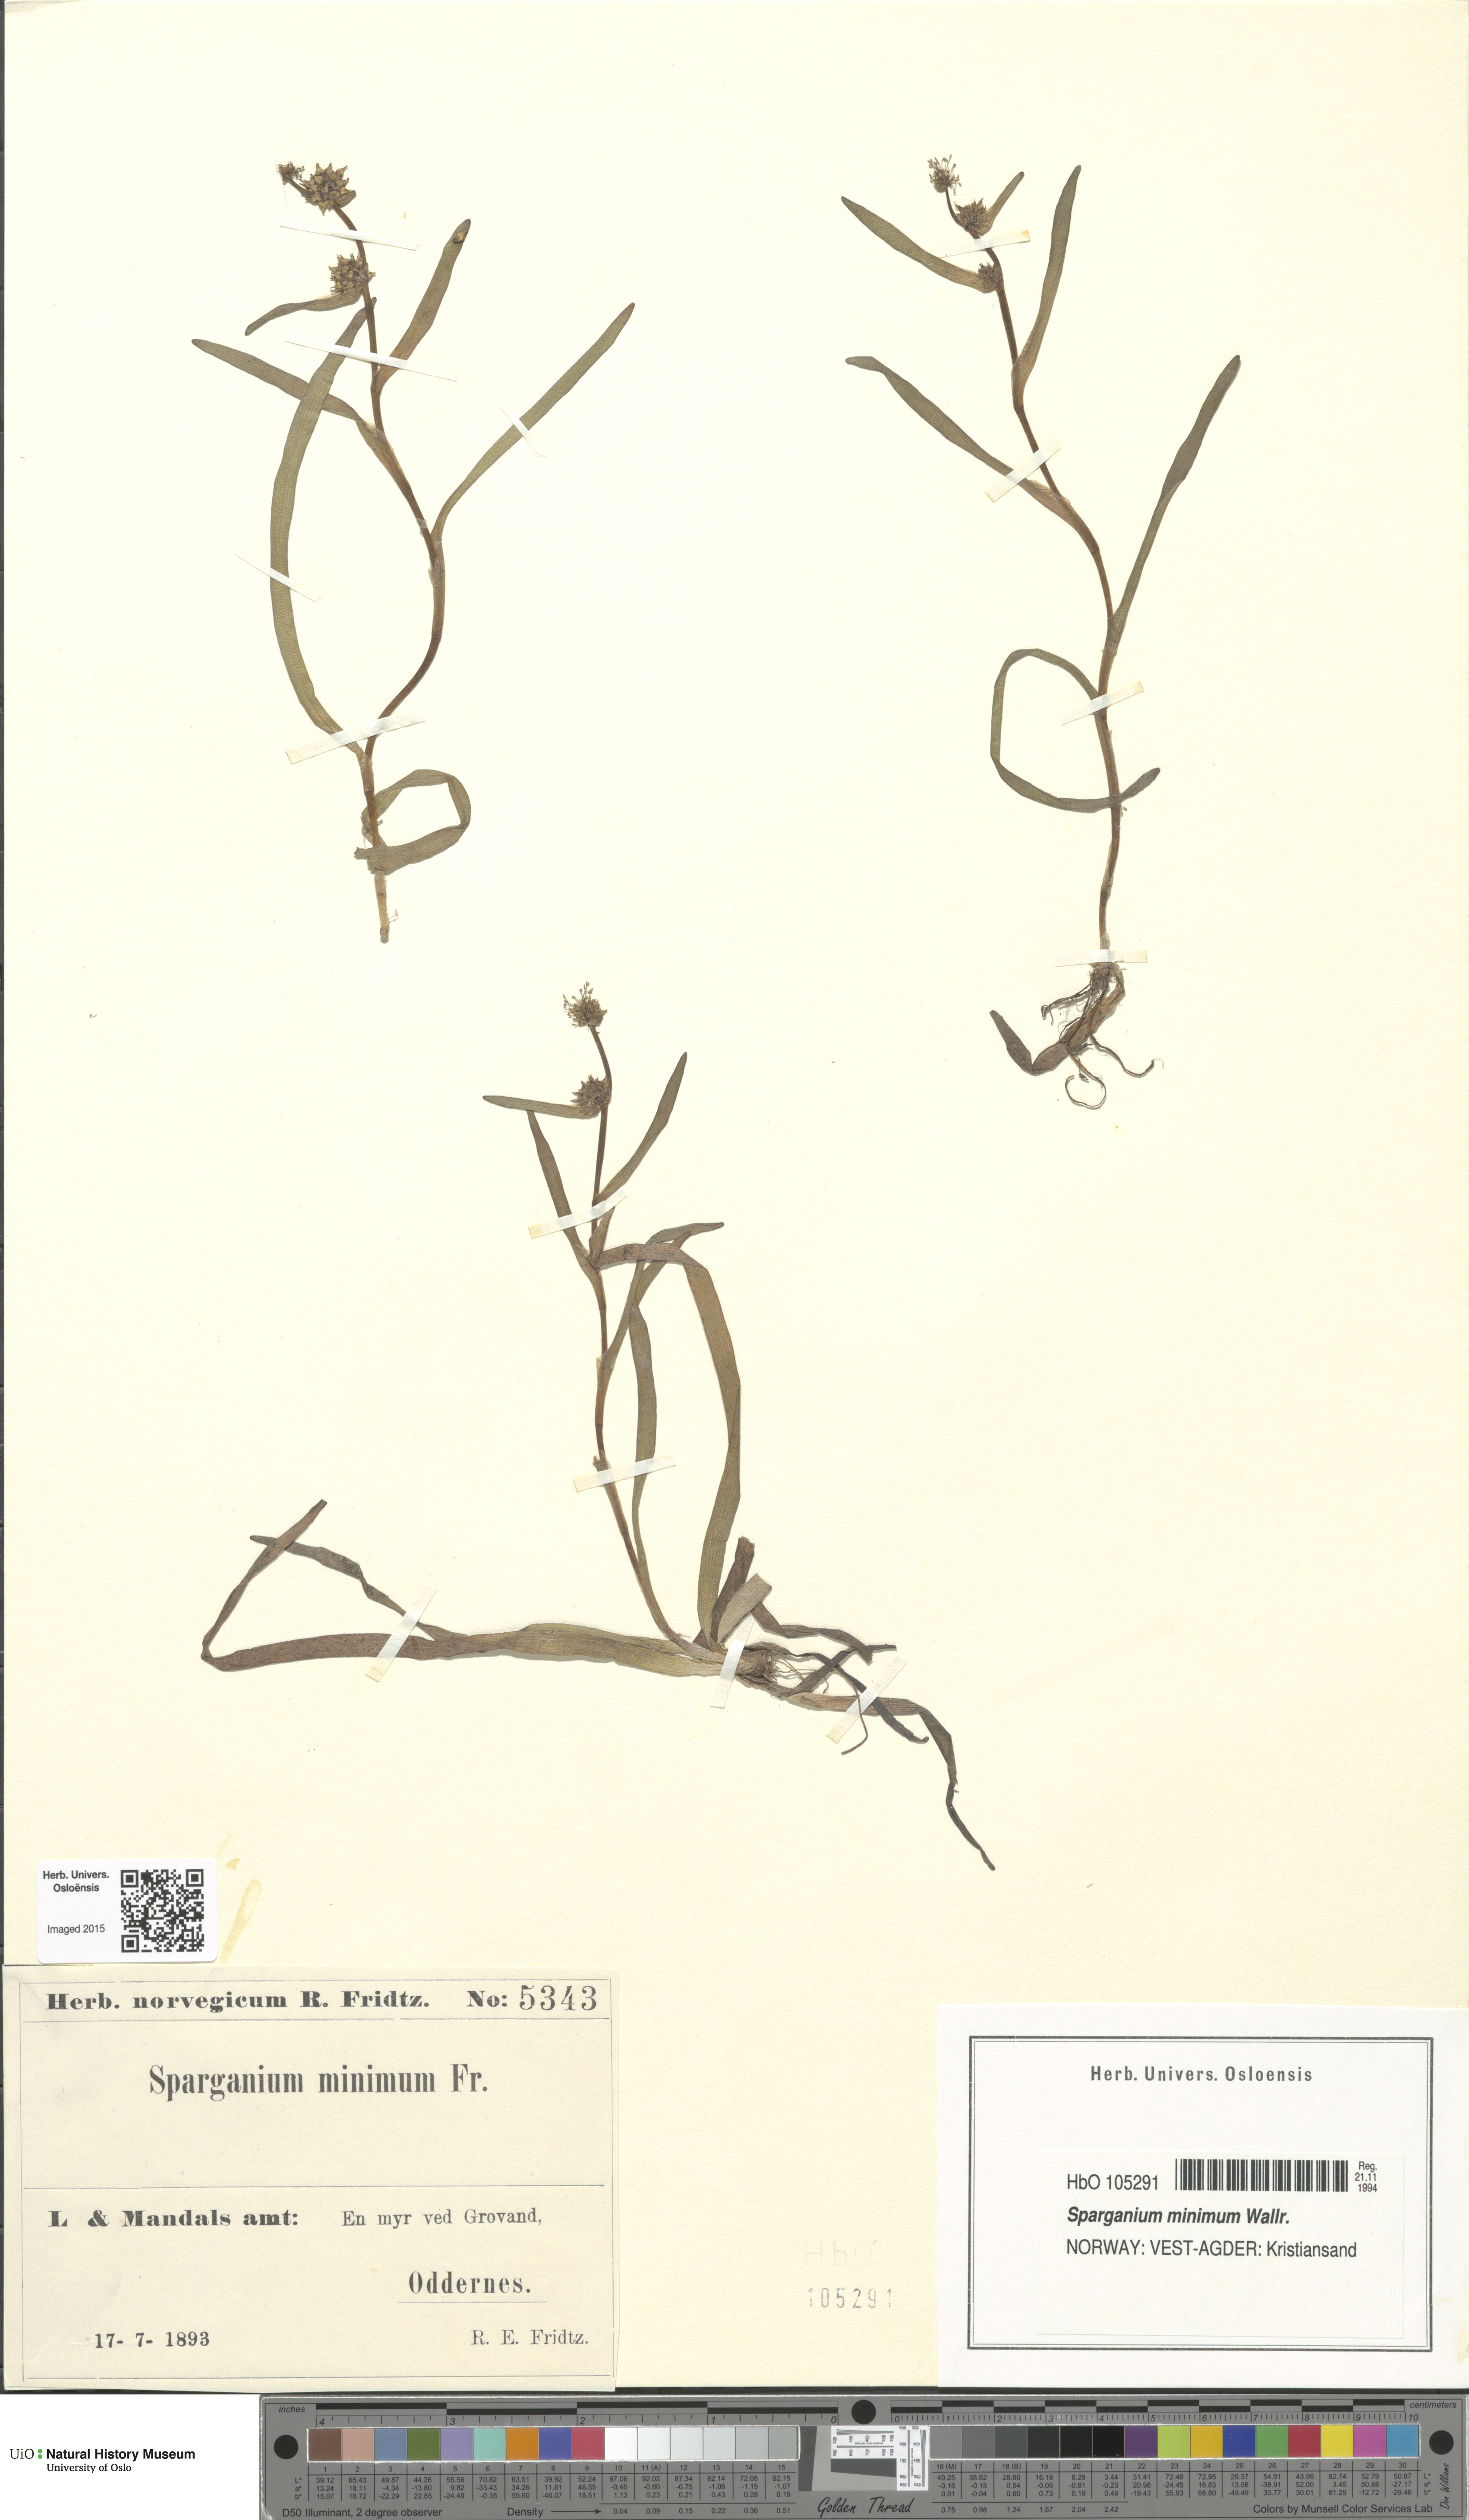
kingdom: Plantae
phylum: Tracheophyta
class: Liliopsida
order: Poales
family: Typhaceae
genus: Sparganium
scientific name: Sparganium natans
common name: Least bur-reed
